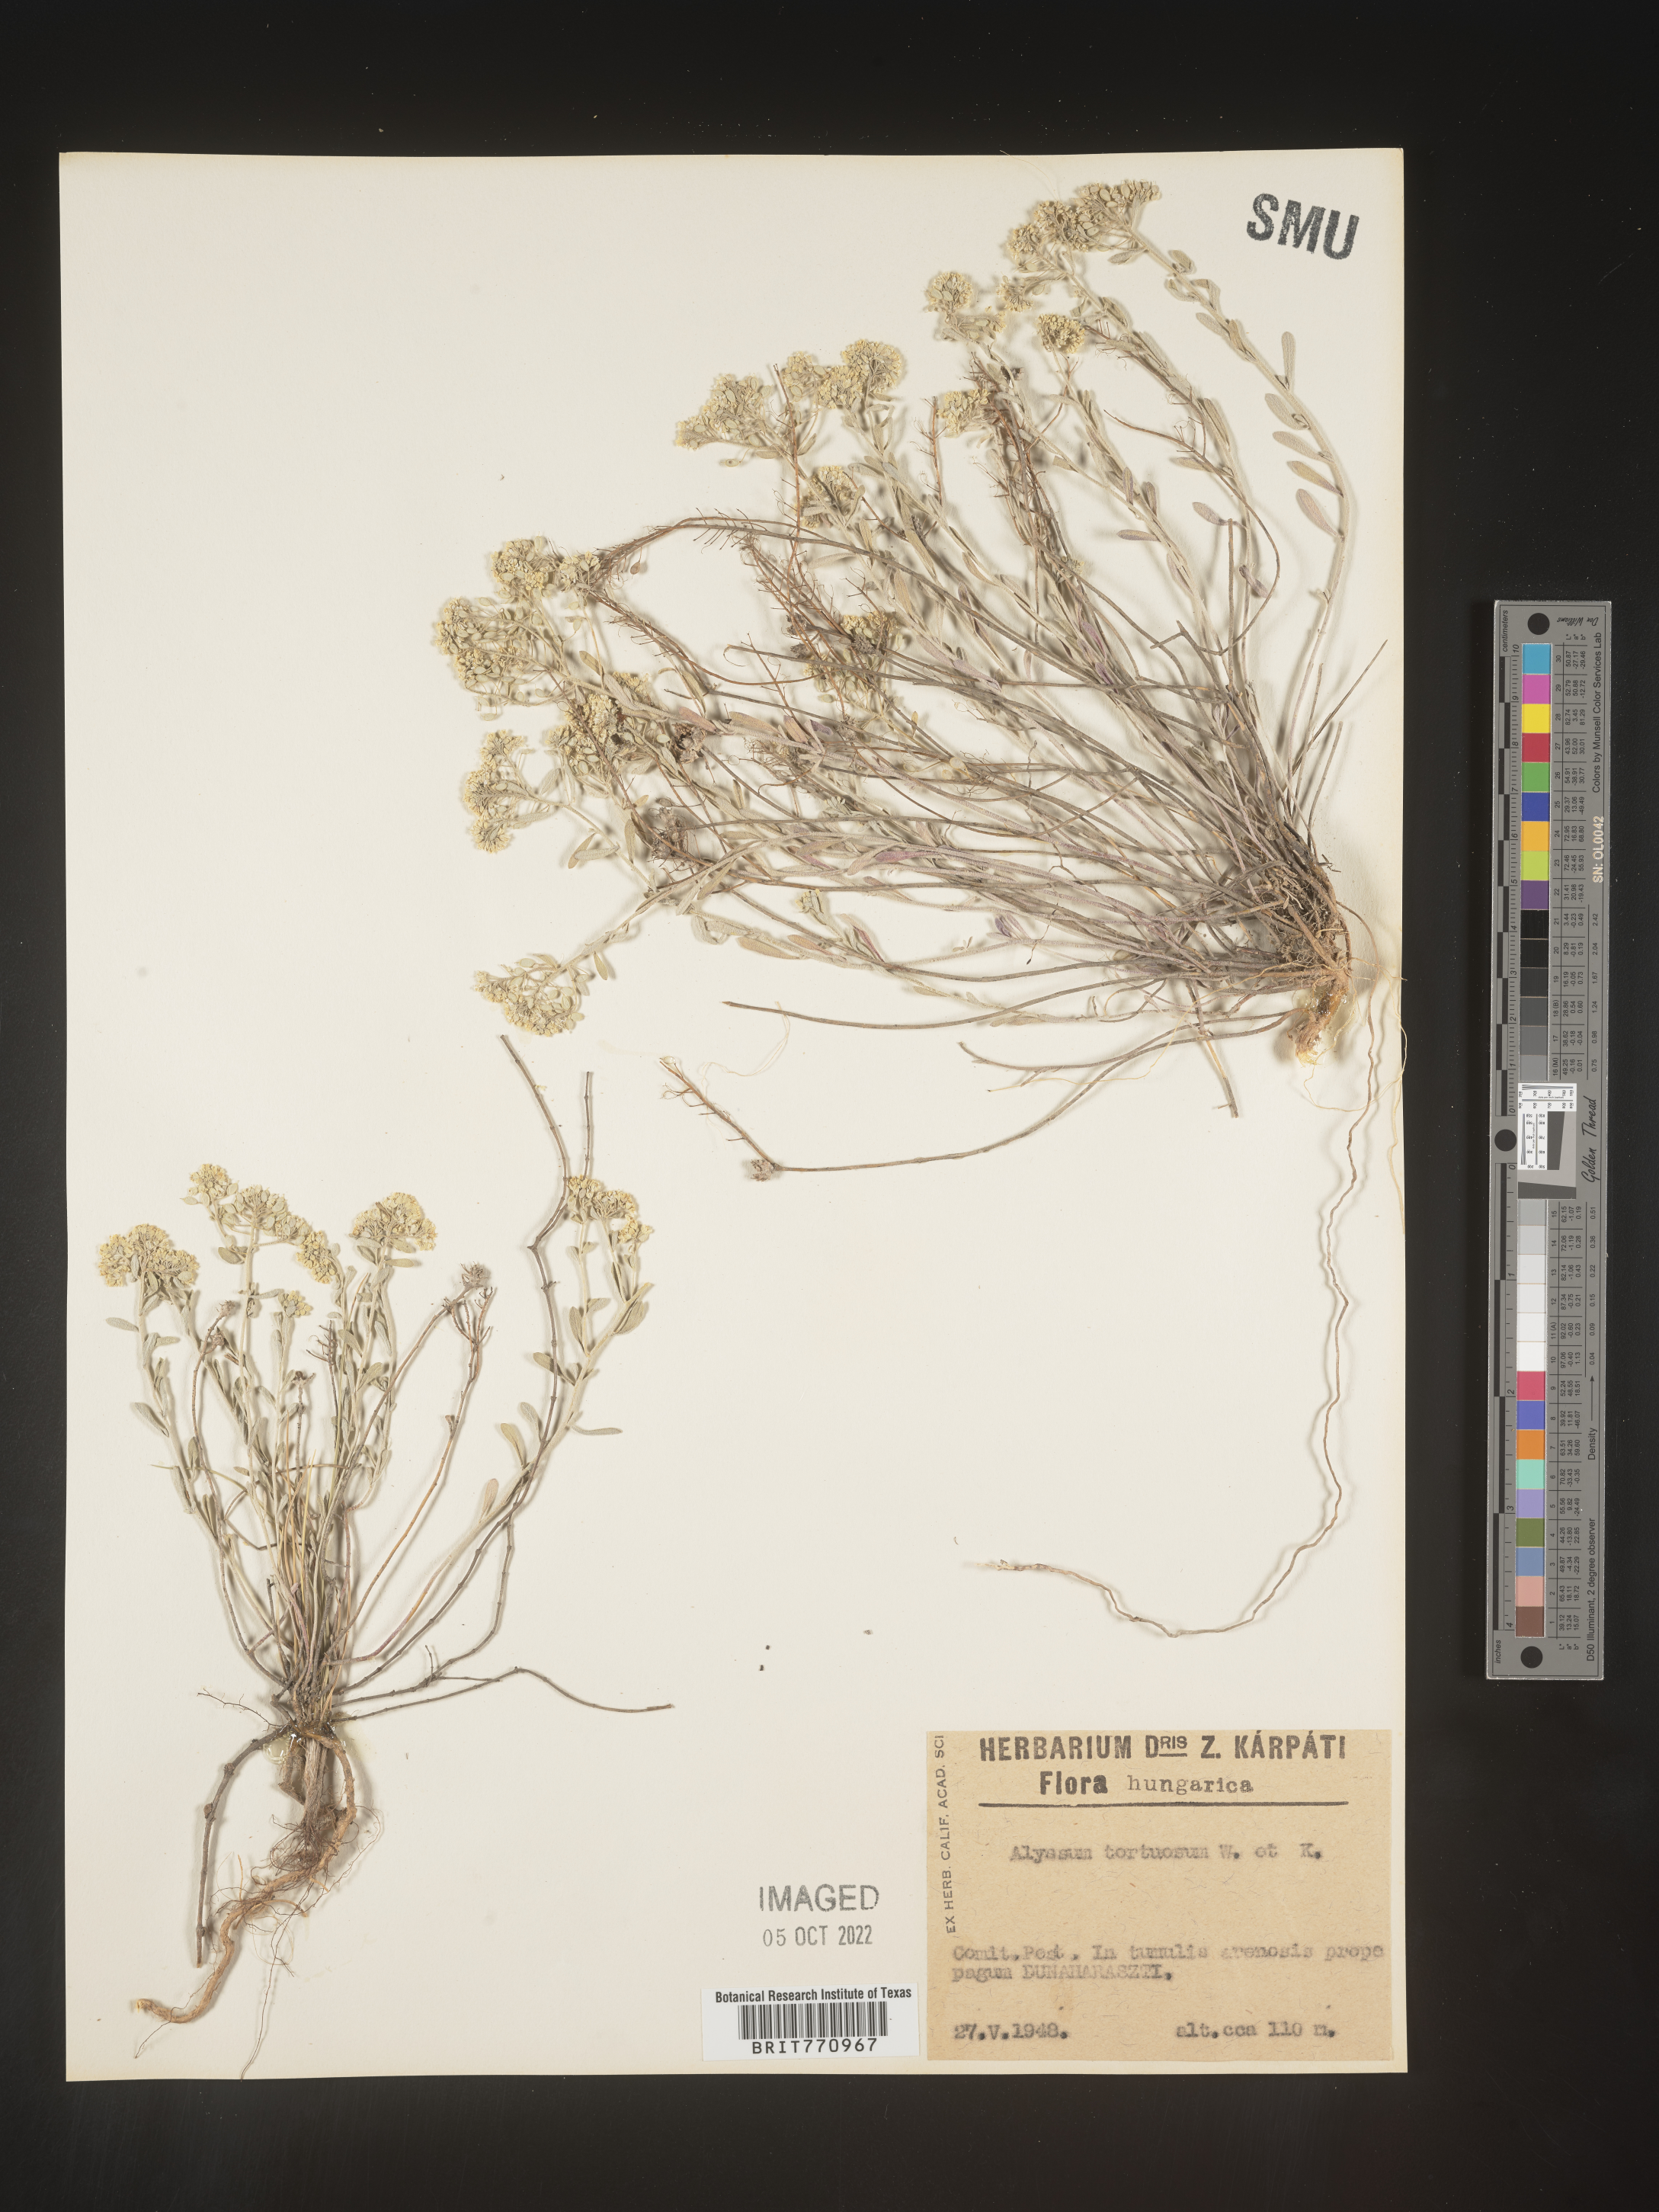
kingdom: Plantae
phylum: Tracheophyta
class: Magnoliopsida
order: Brassicales
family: Brassicaceae
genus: Alyssum
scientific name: Alyssum
